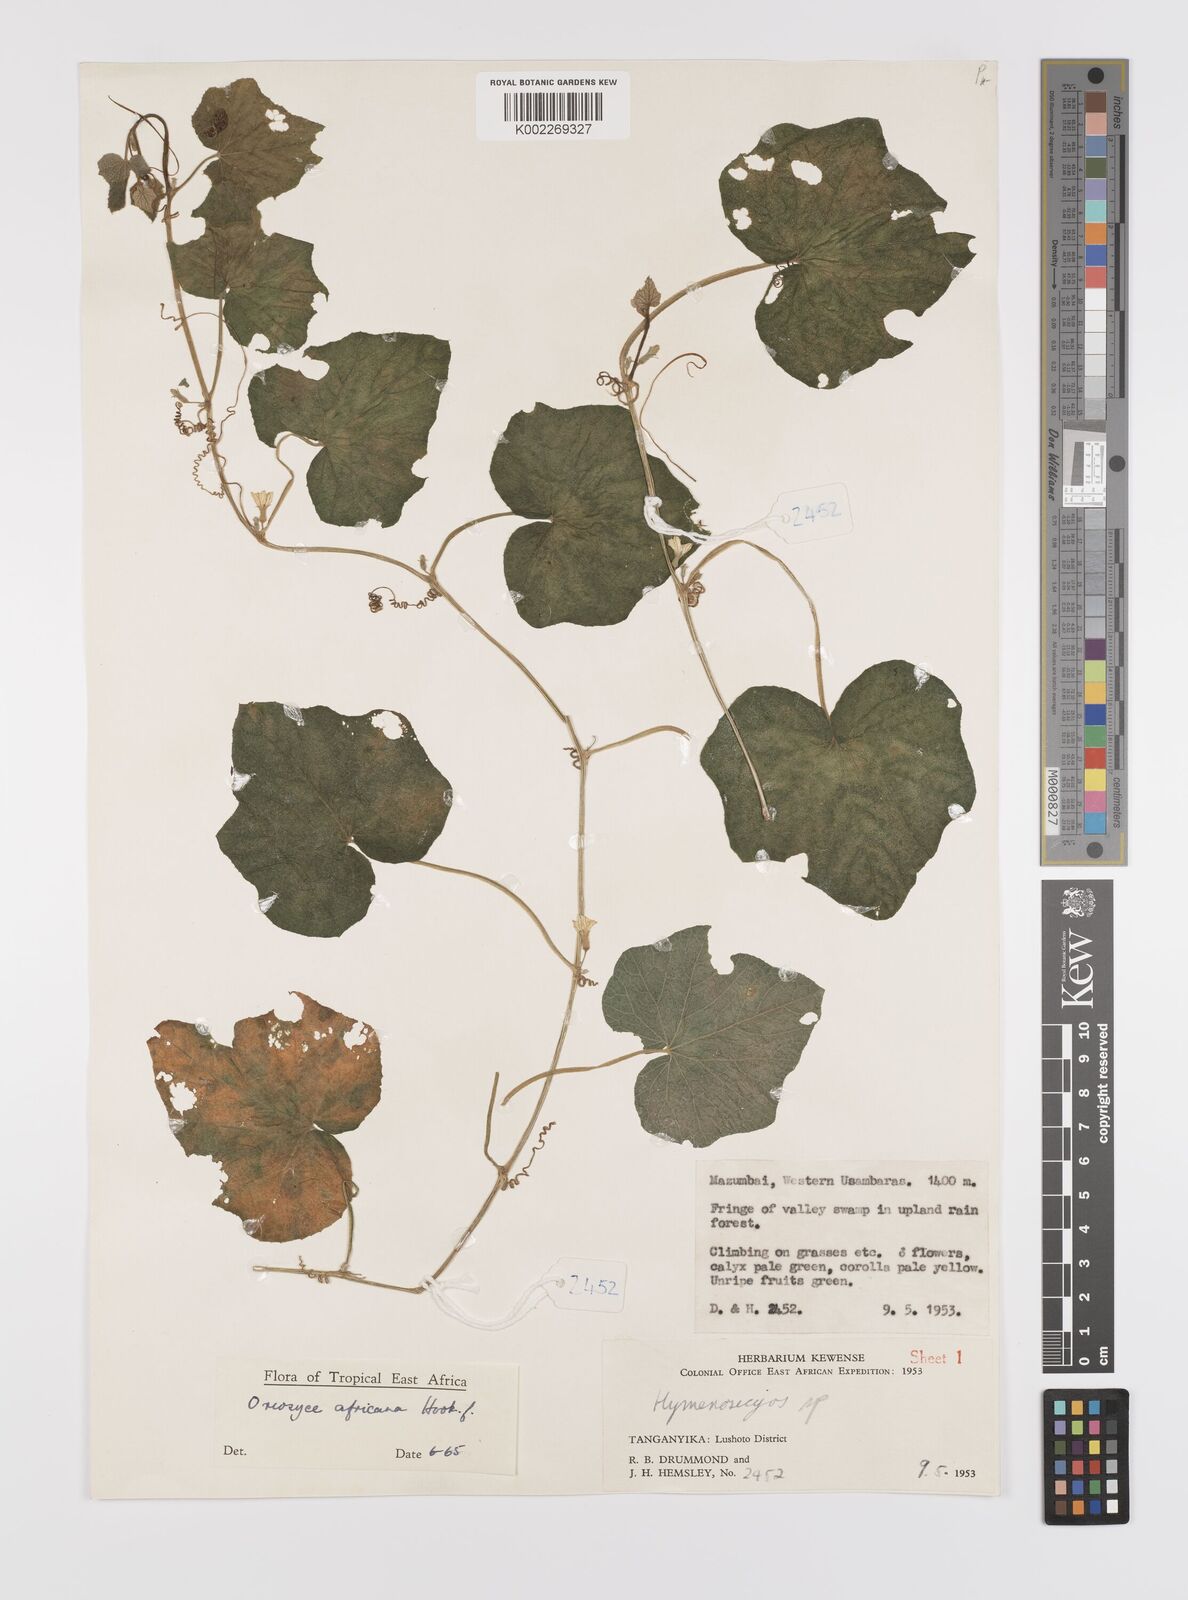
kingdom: Plantae
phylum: Tracheophyta
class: Magnoliopsida
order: Cucurbitales
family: Cucurbitaceae
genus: Cucumis
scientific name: Cucumis oreosyce
